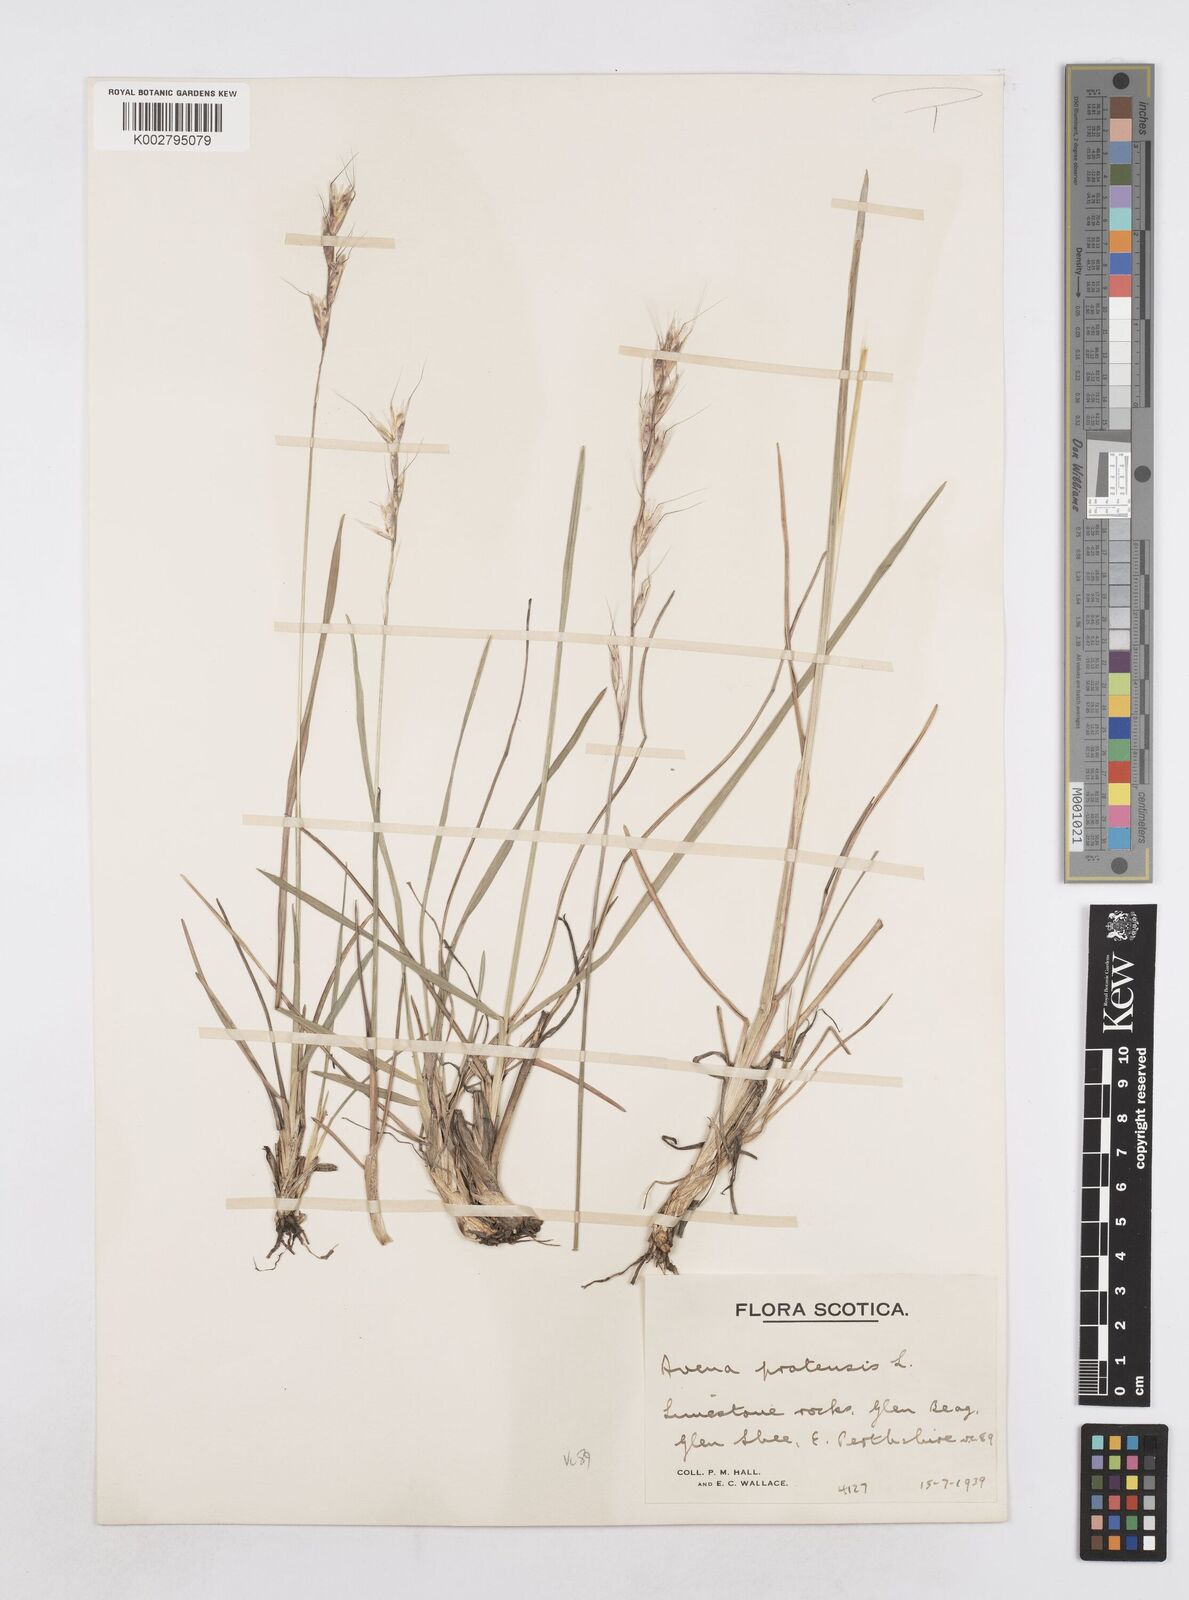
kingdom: Plantae
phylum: Tracheophyta
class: Liliopsida
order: Poales
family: Poaceae
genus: Helictotrichon
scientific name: Helictotrichon
